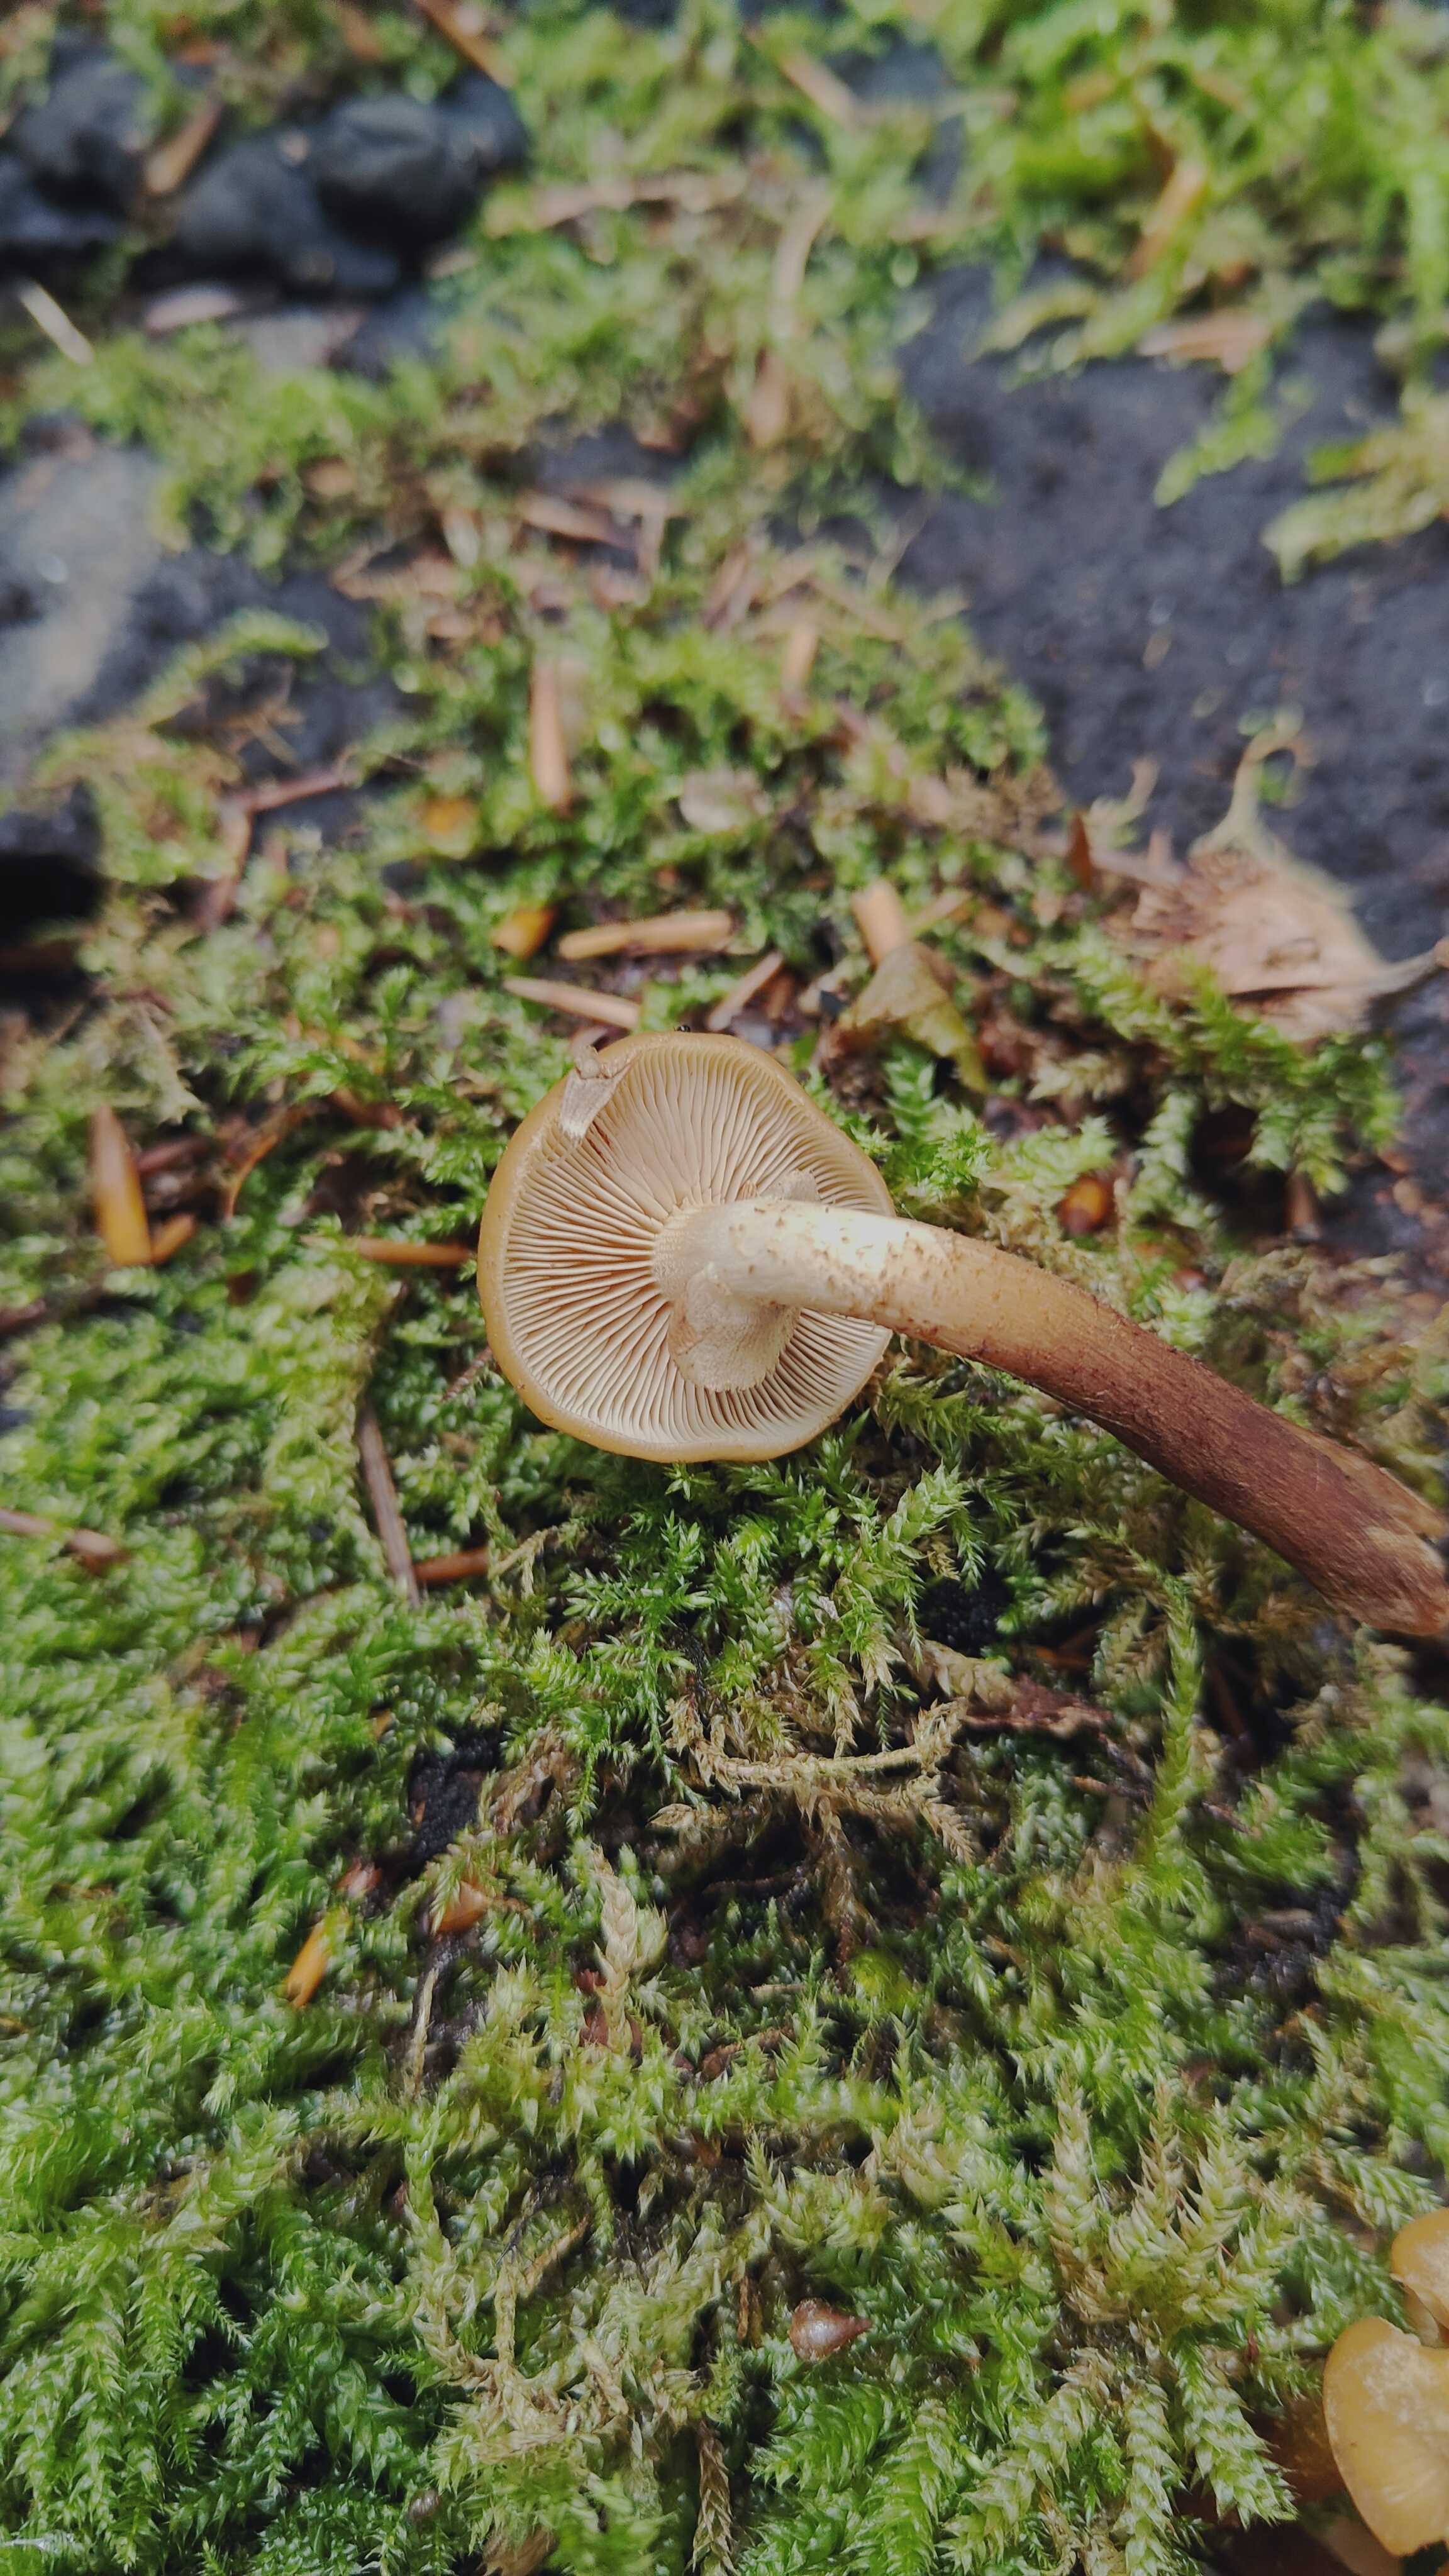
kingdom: Fungi
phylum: Basidiomycota
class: Agaricomycetes
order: Agaricales
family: Strophariaceae
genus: Kuehneromyces
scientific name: Kuehneromyces mutabilis
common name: foranderlig skælhat
